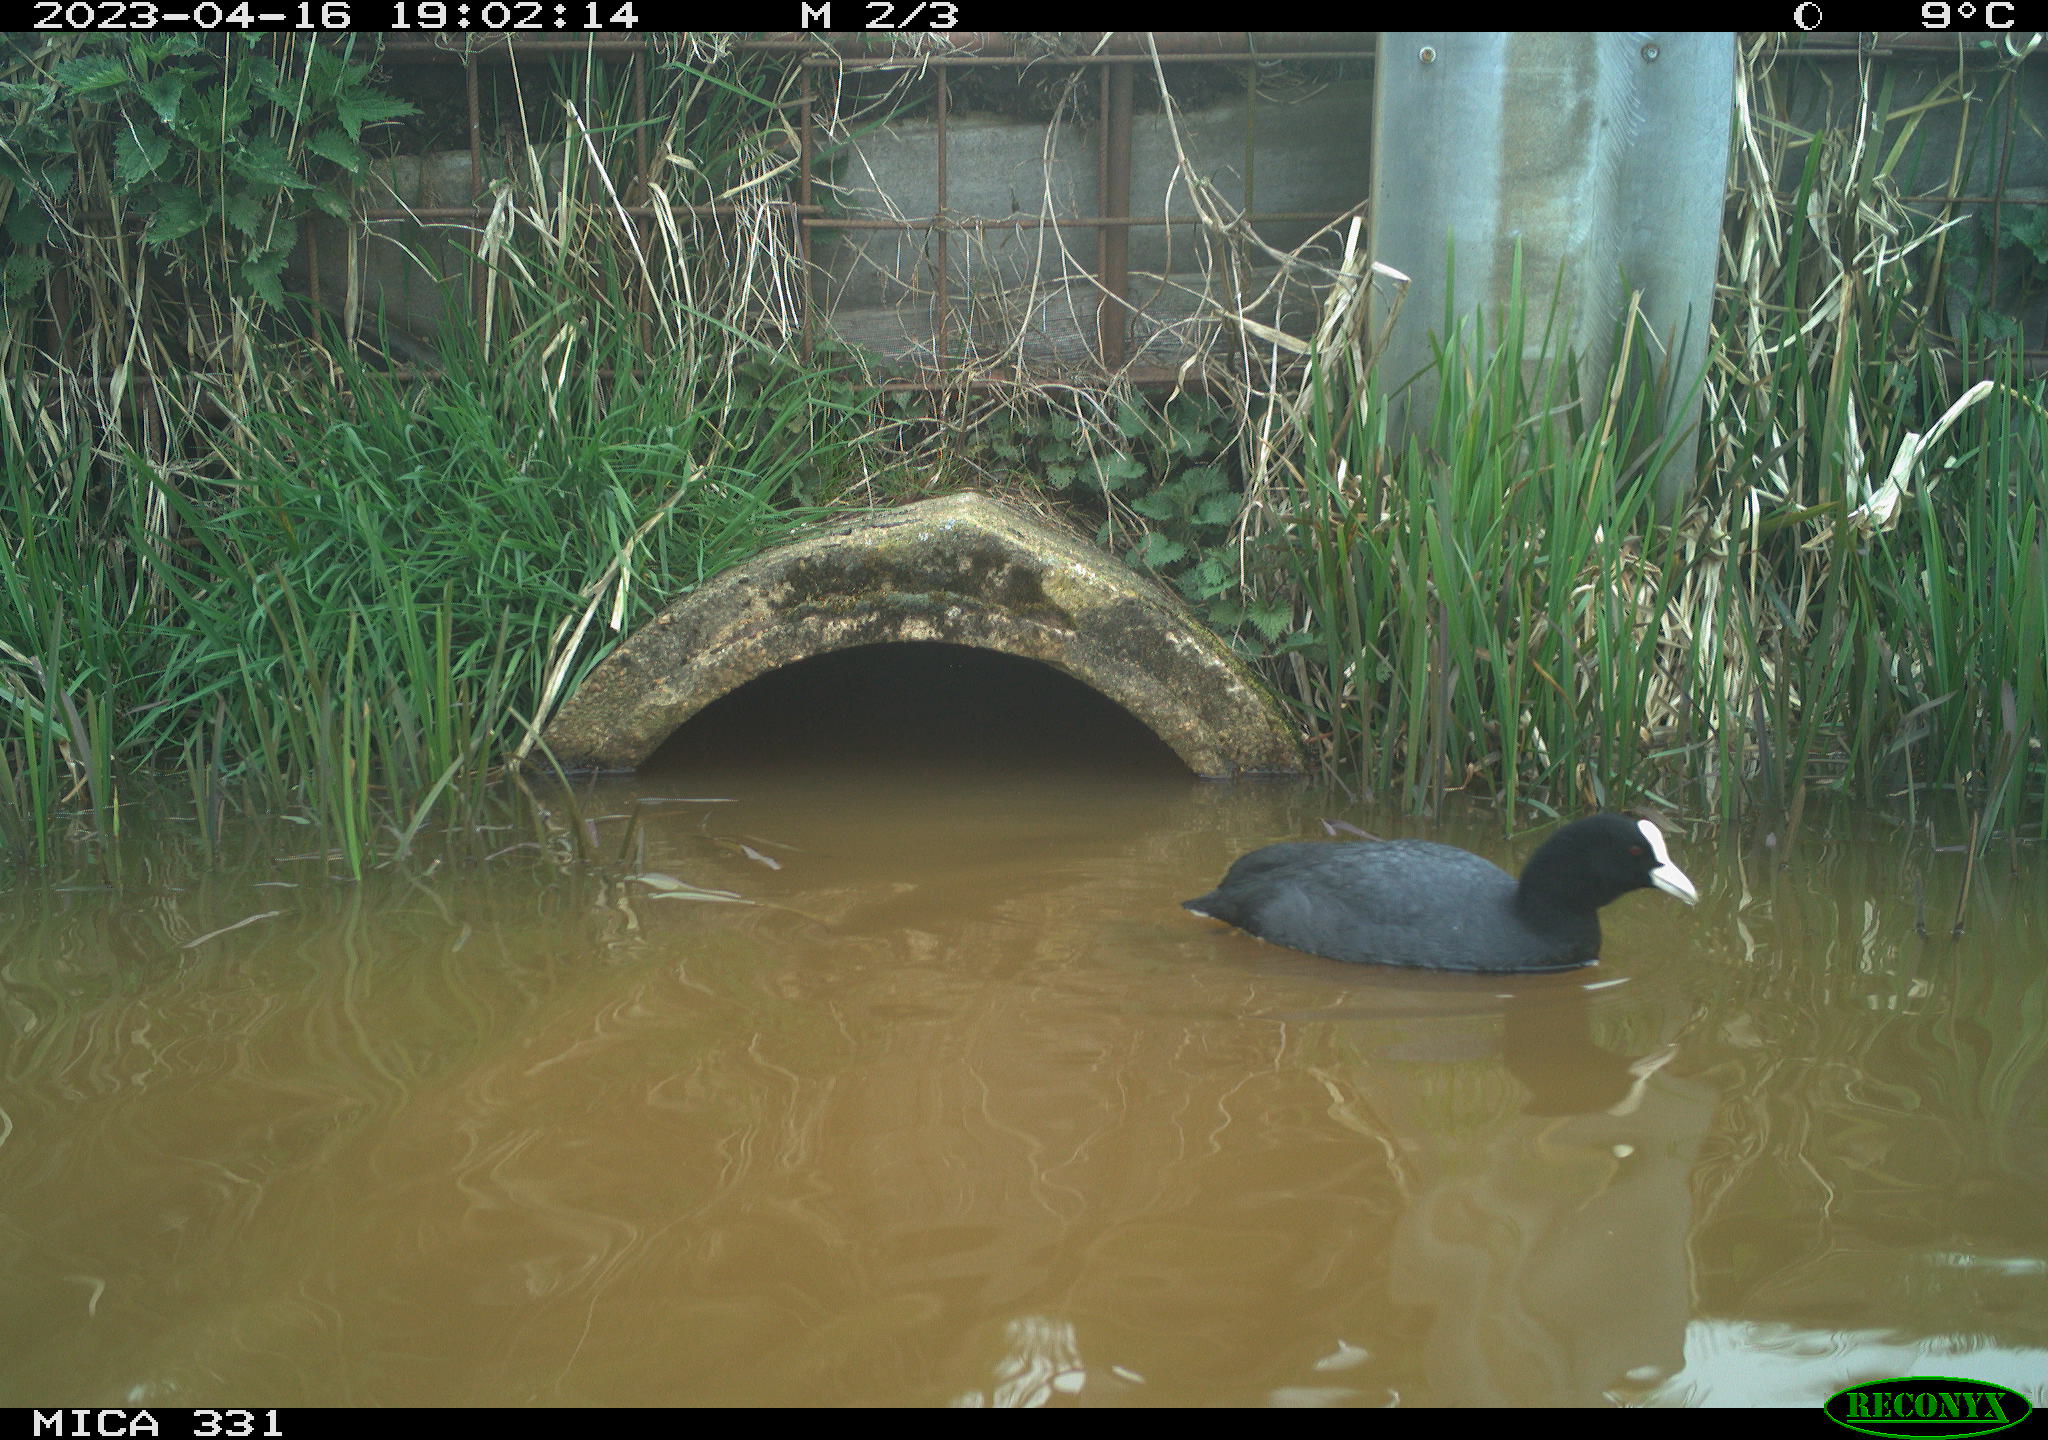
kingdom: Animalia
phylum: Chordata
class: Aves
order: Gruiformes
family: Rallidae
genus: Fulica
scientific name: Fulica atra
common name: Eurasian coot
